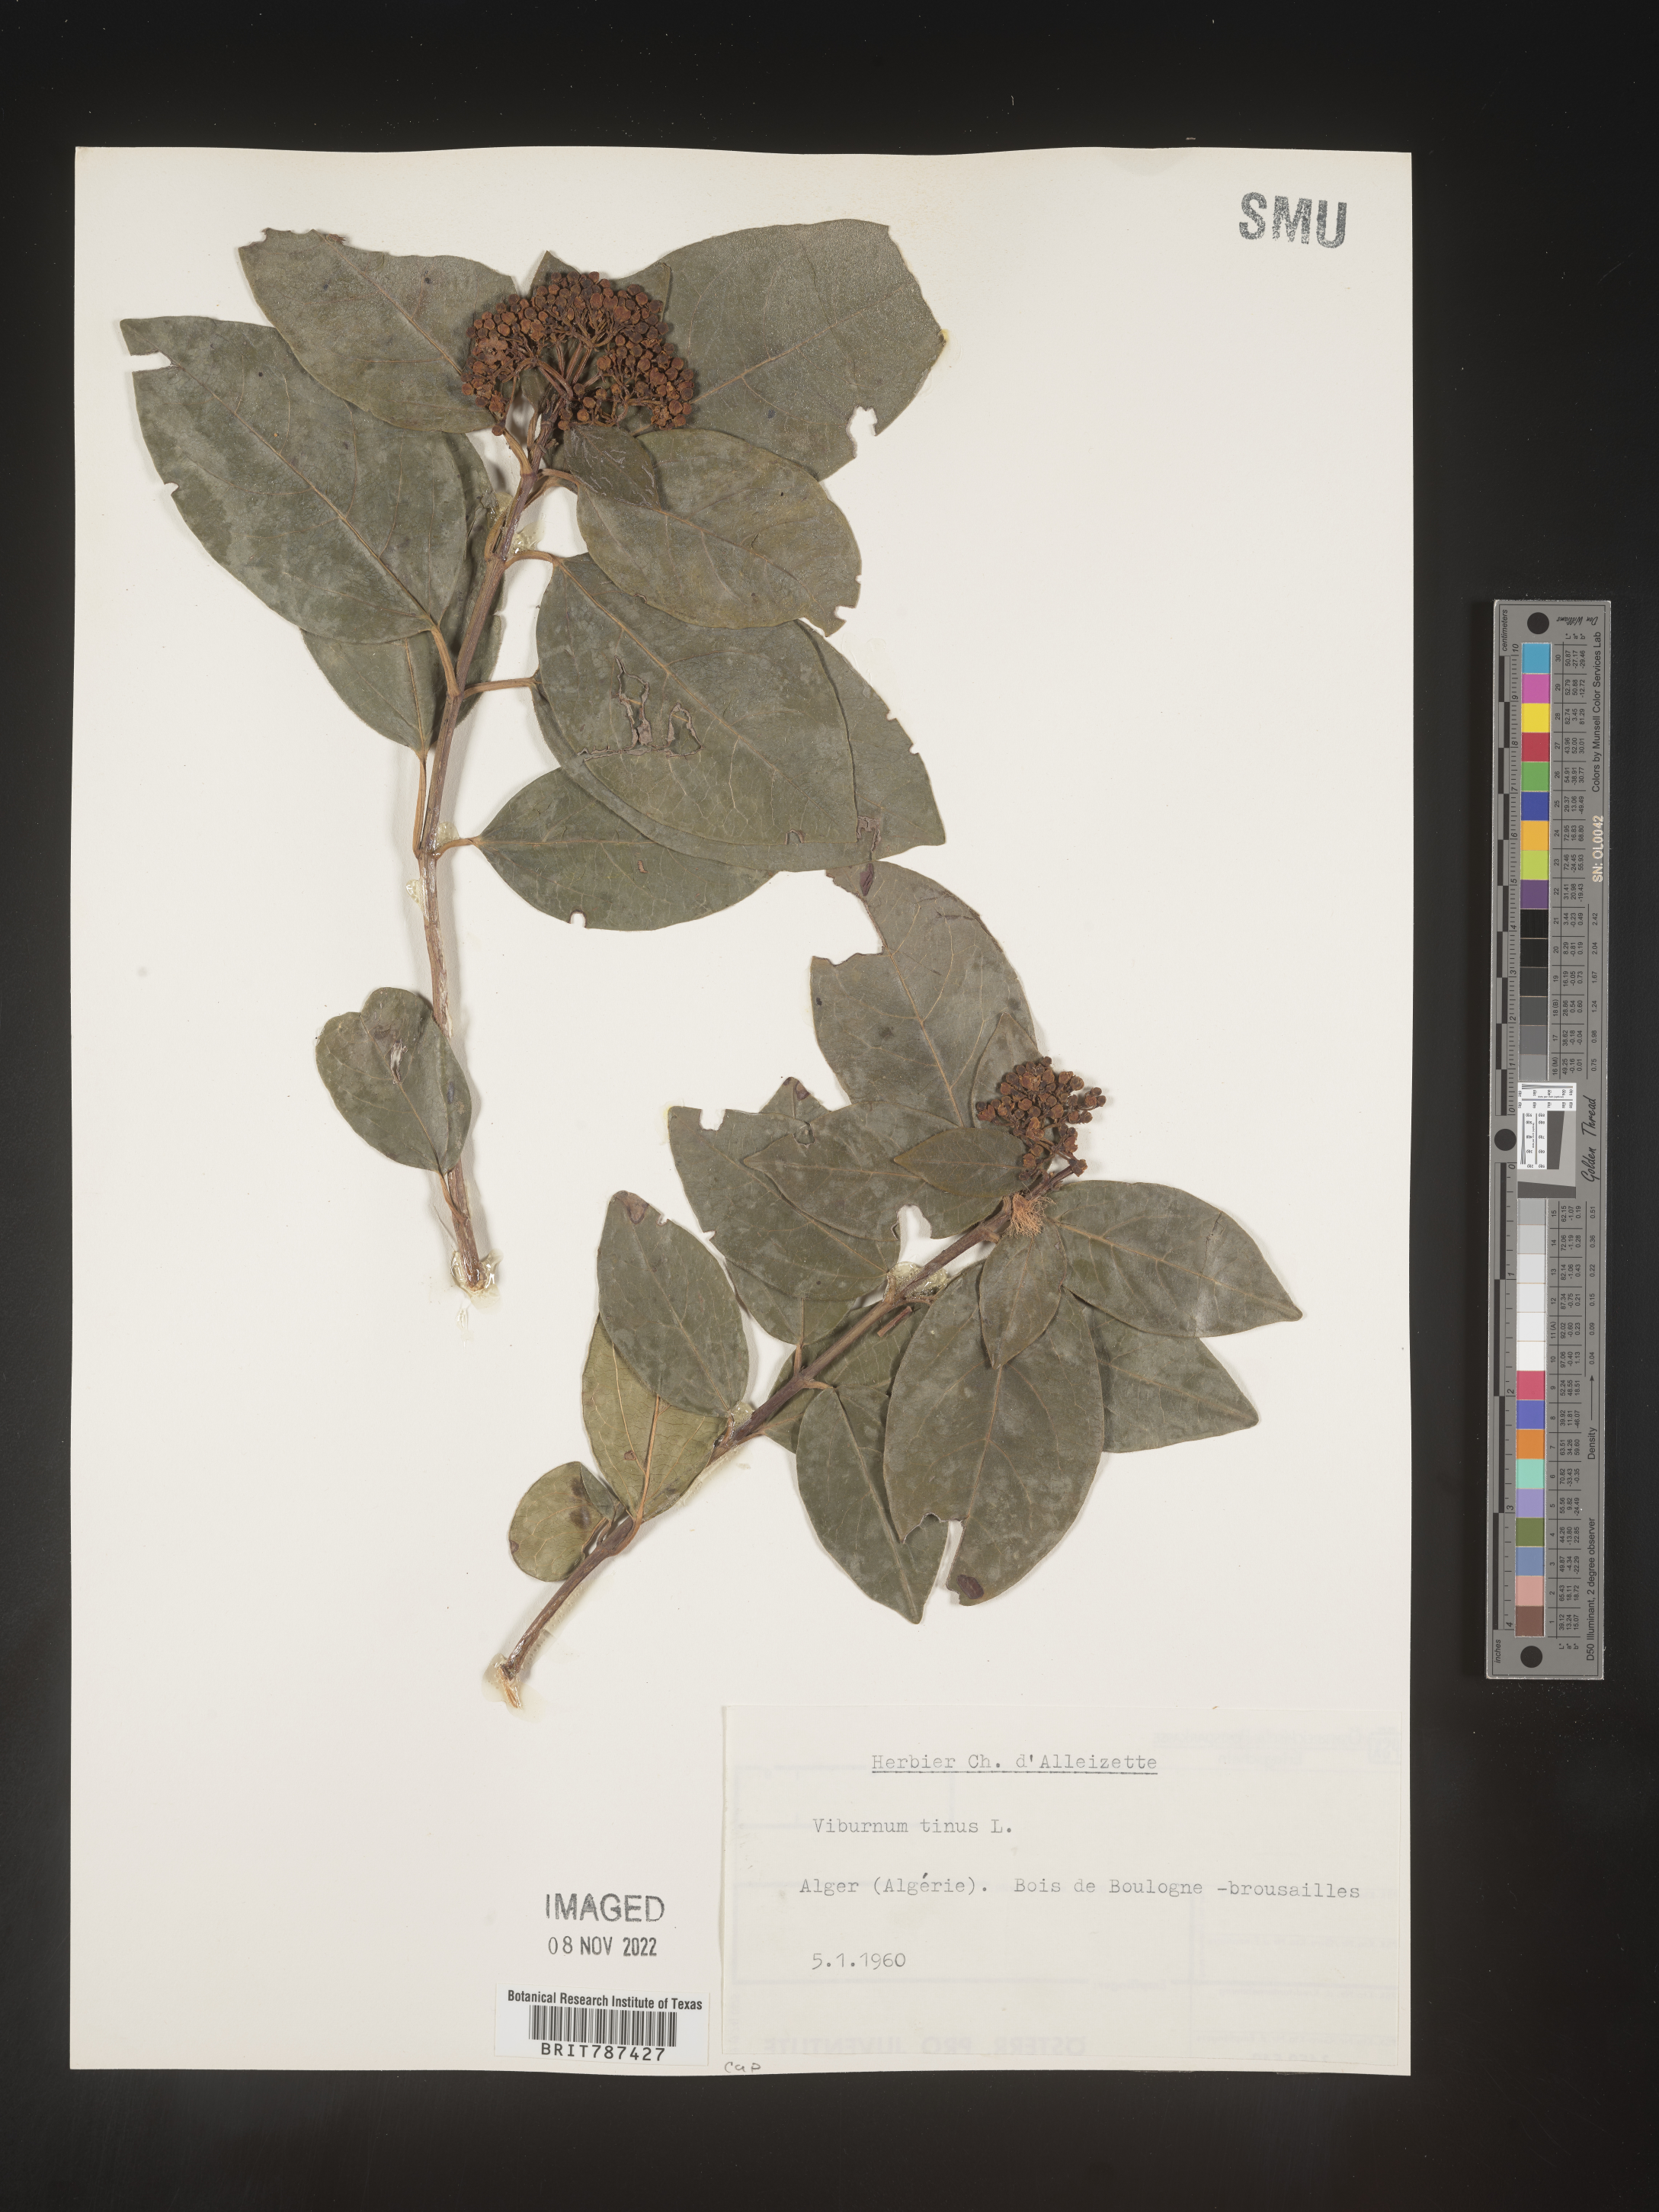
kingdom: Plantae
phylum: Tracheophyta
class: Magnoliopsida
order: Dipsacales
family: Viburnaceae
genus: Viburnum
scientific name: Viburnum
